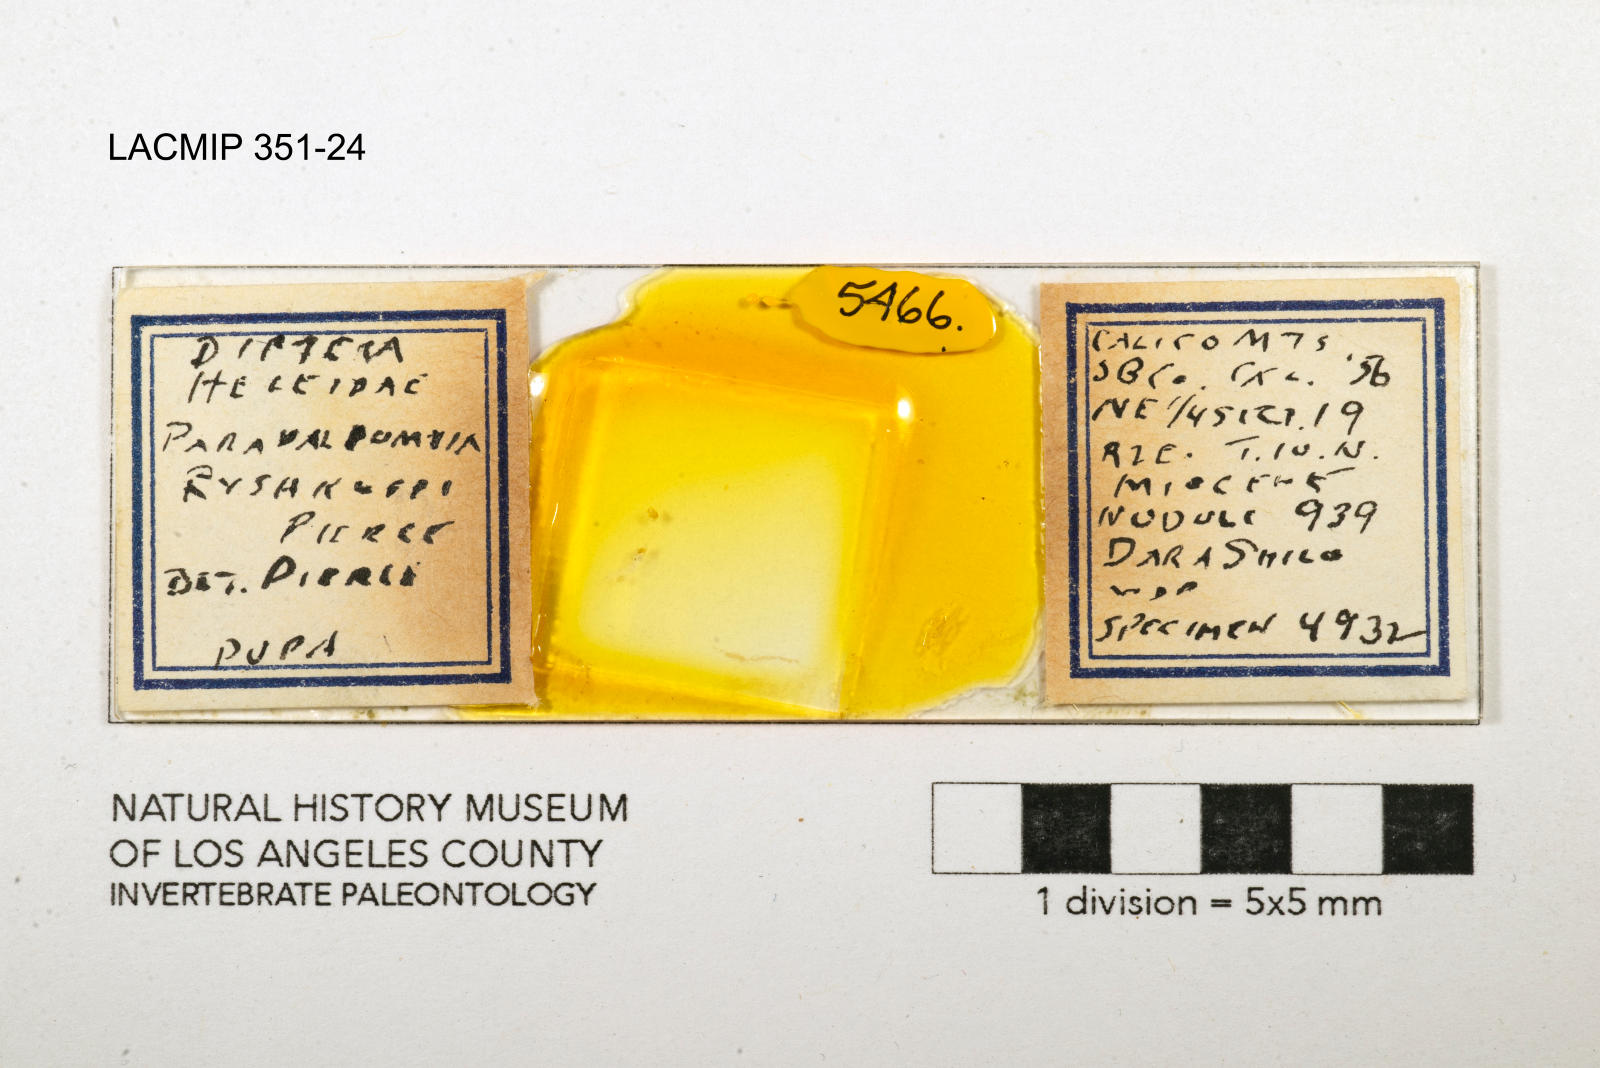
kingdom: Animalia
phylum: Arthropoda
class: Insecta
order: Diptera
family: Ceratopogonidae
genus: Palpomyia
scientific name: Palpomyia ryshkoffi
